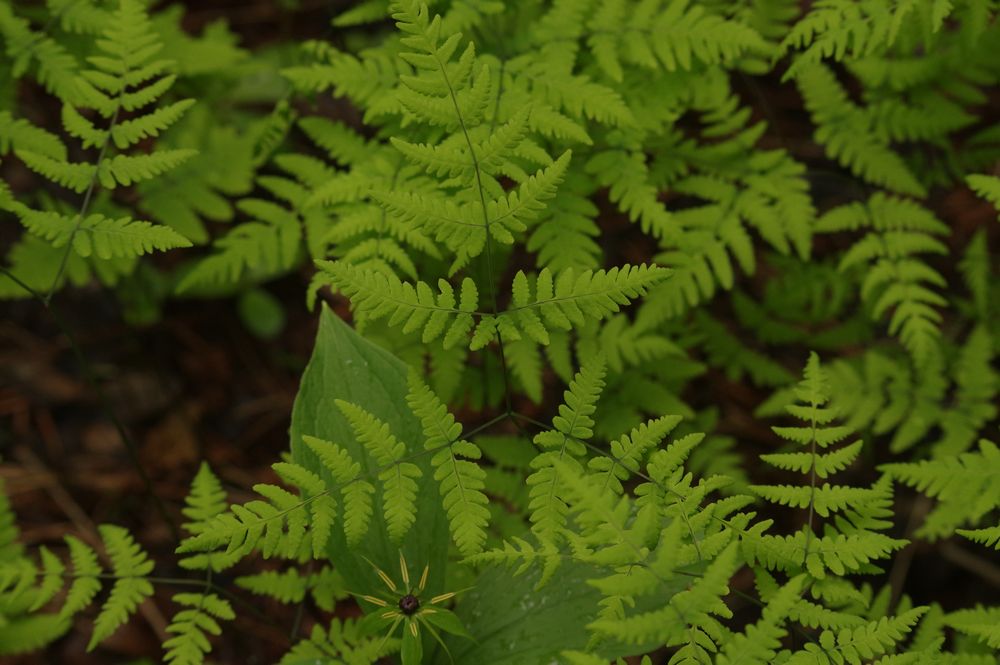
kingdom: Plantae
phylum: Tracheophyta
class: Polypodiopsida
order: Polypodiales
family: Cystopteridaceae
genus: Gymnocarpium
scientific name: Gymnocarpium dryopteris
